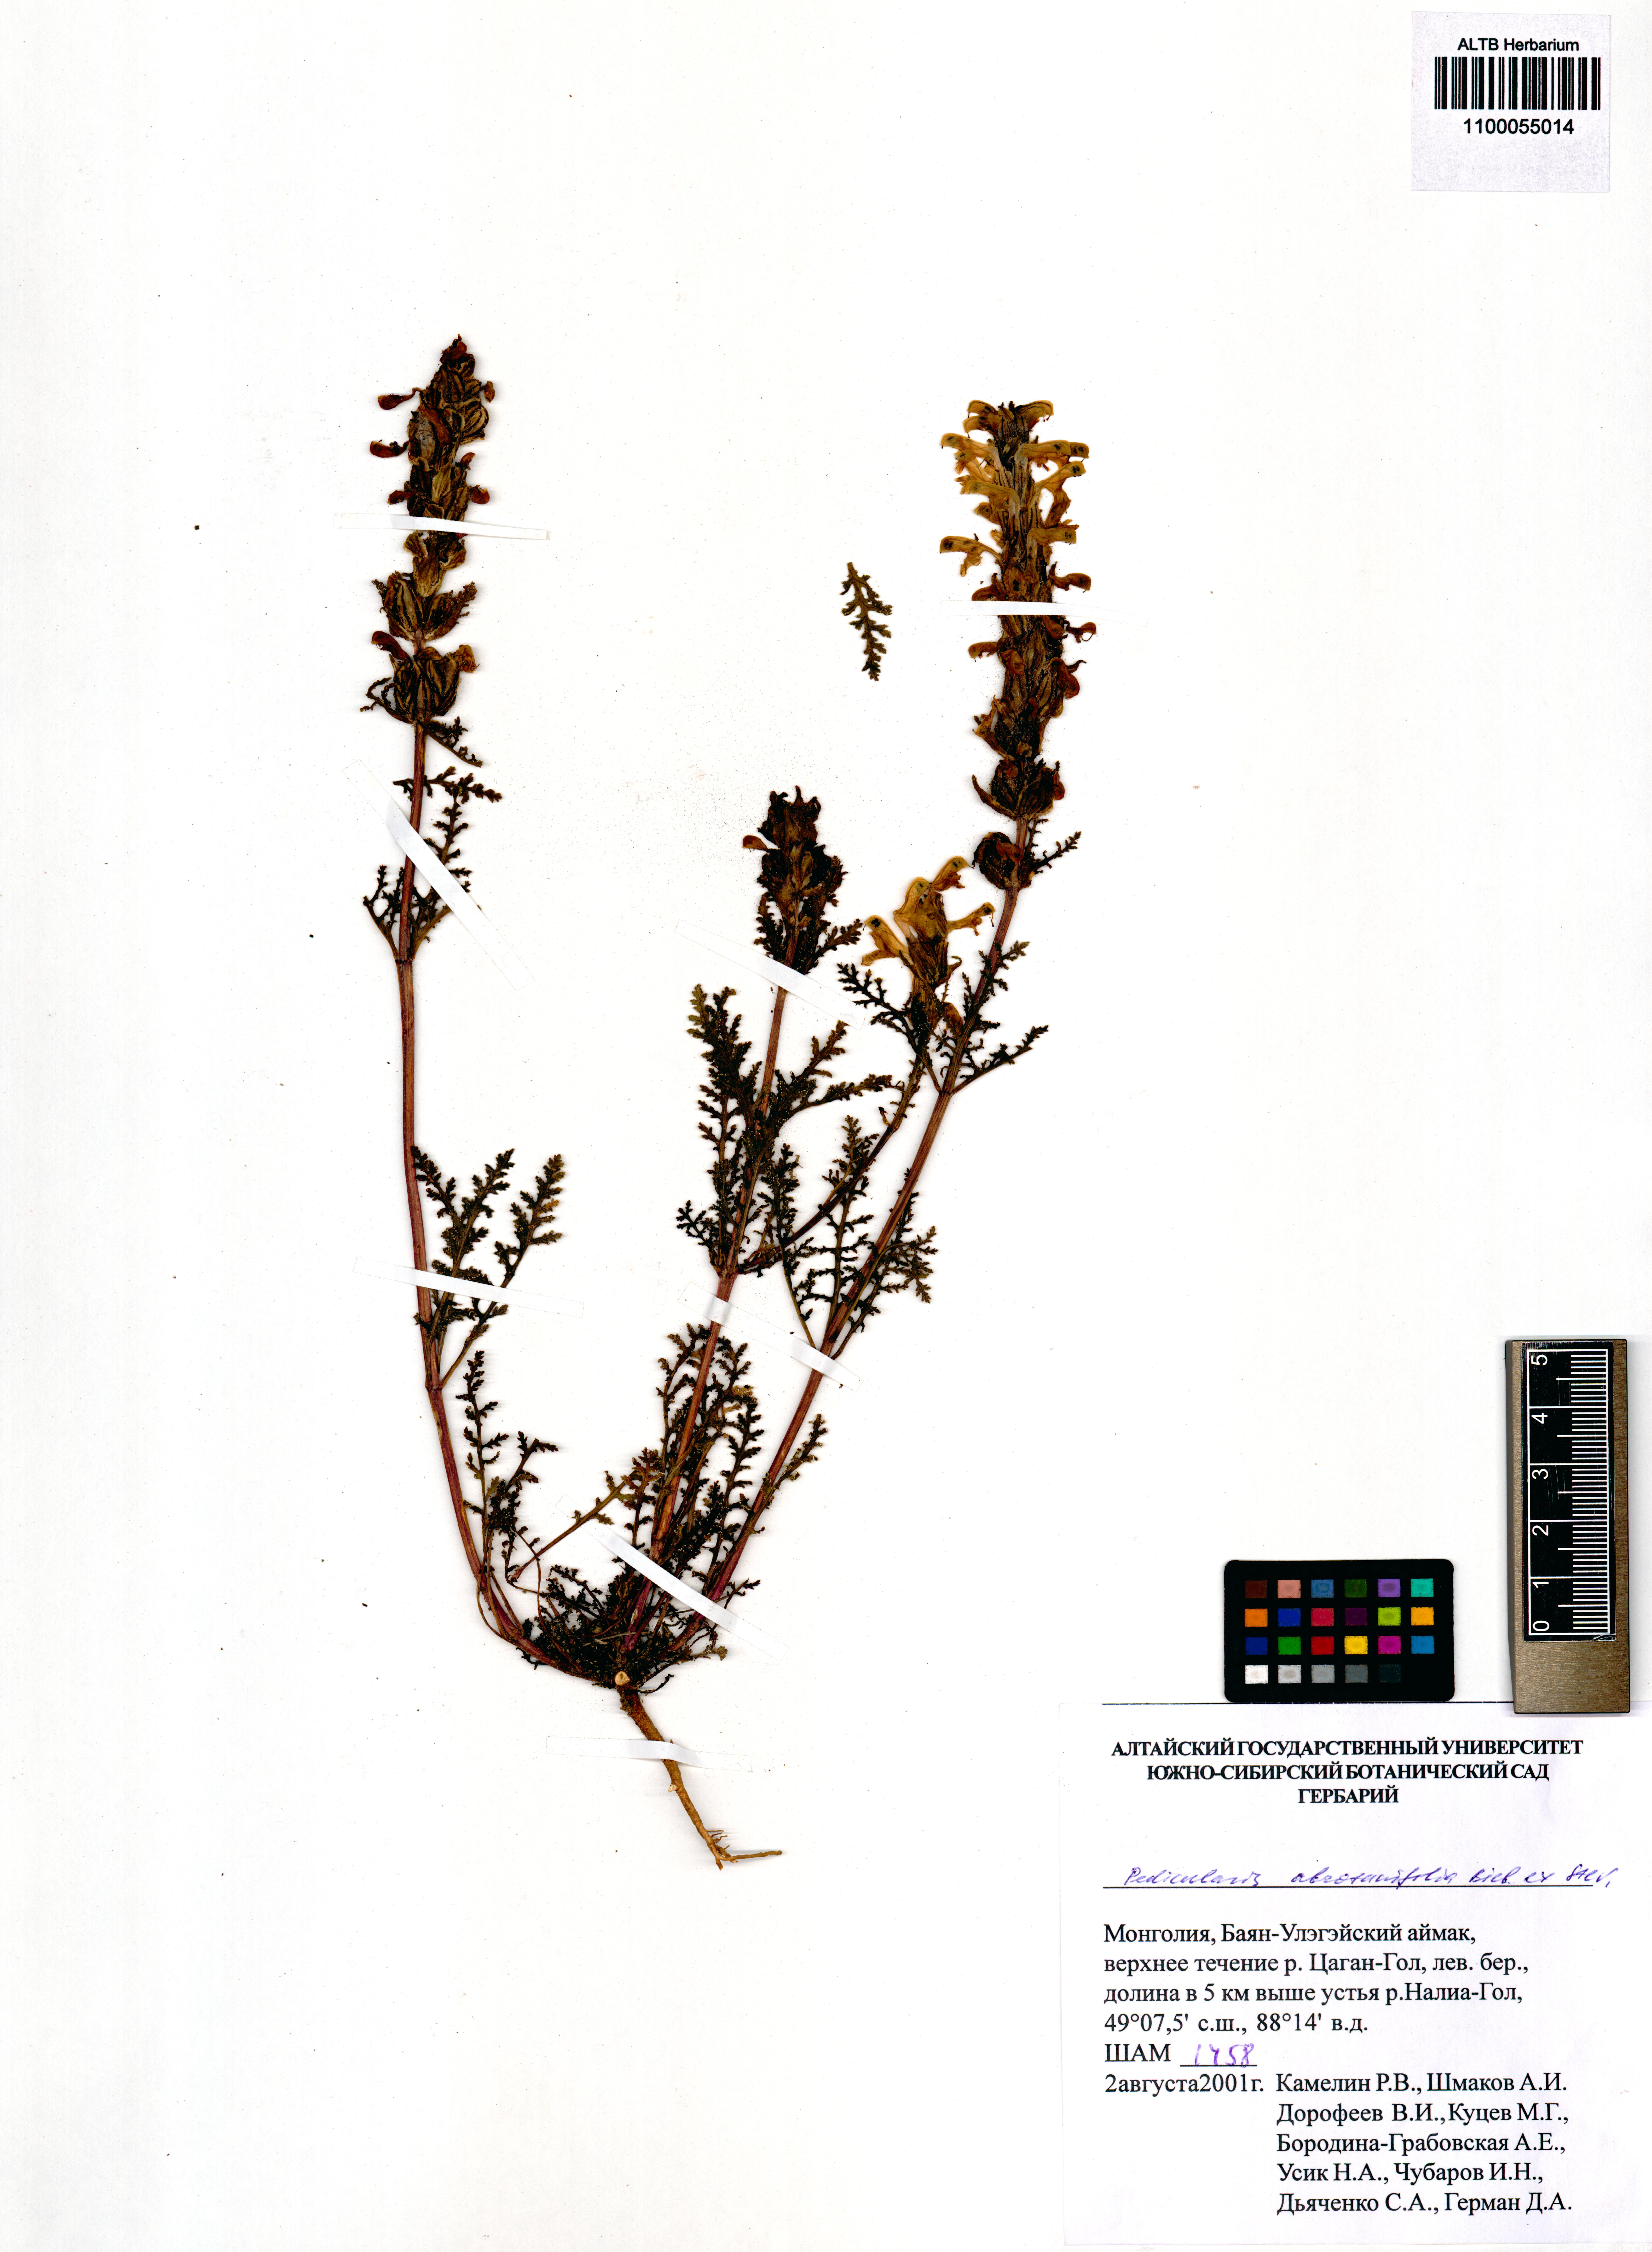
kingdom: Plantae
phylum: Tracheophyta
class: Magnoliopsida
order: Lamiales
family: Orobanchaceae
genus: Pedicularis
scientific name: Pedicularis abrotanifolia
